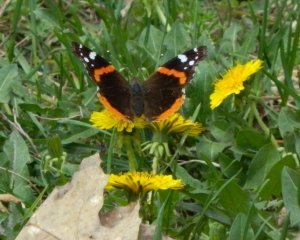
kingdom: Animalia
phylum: Arthropoda
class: Insecta
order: Lepidoptera
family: Nymphalidae
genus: Vanessa
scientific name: Vanessa atalanta
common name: Red Admiral
